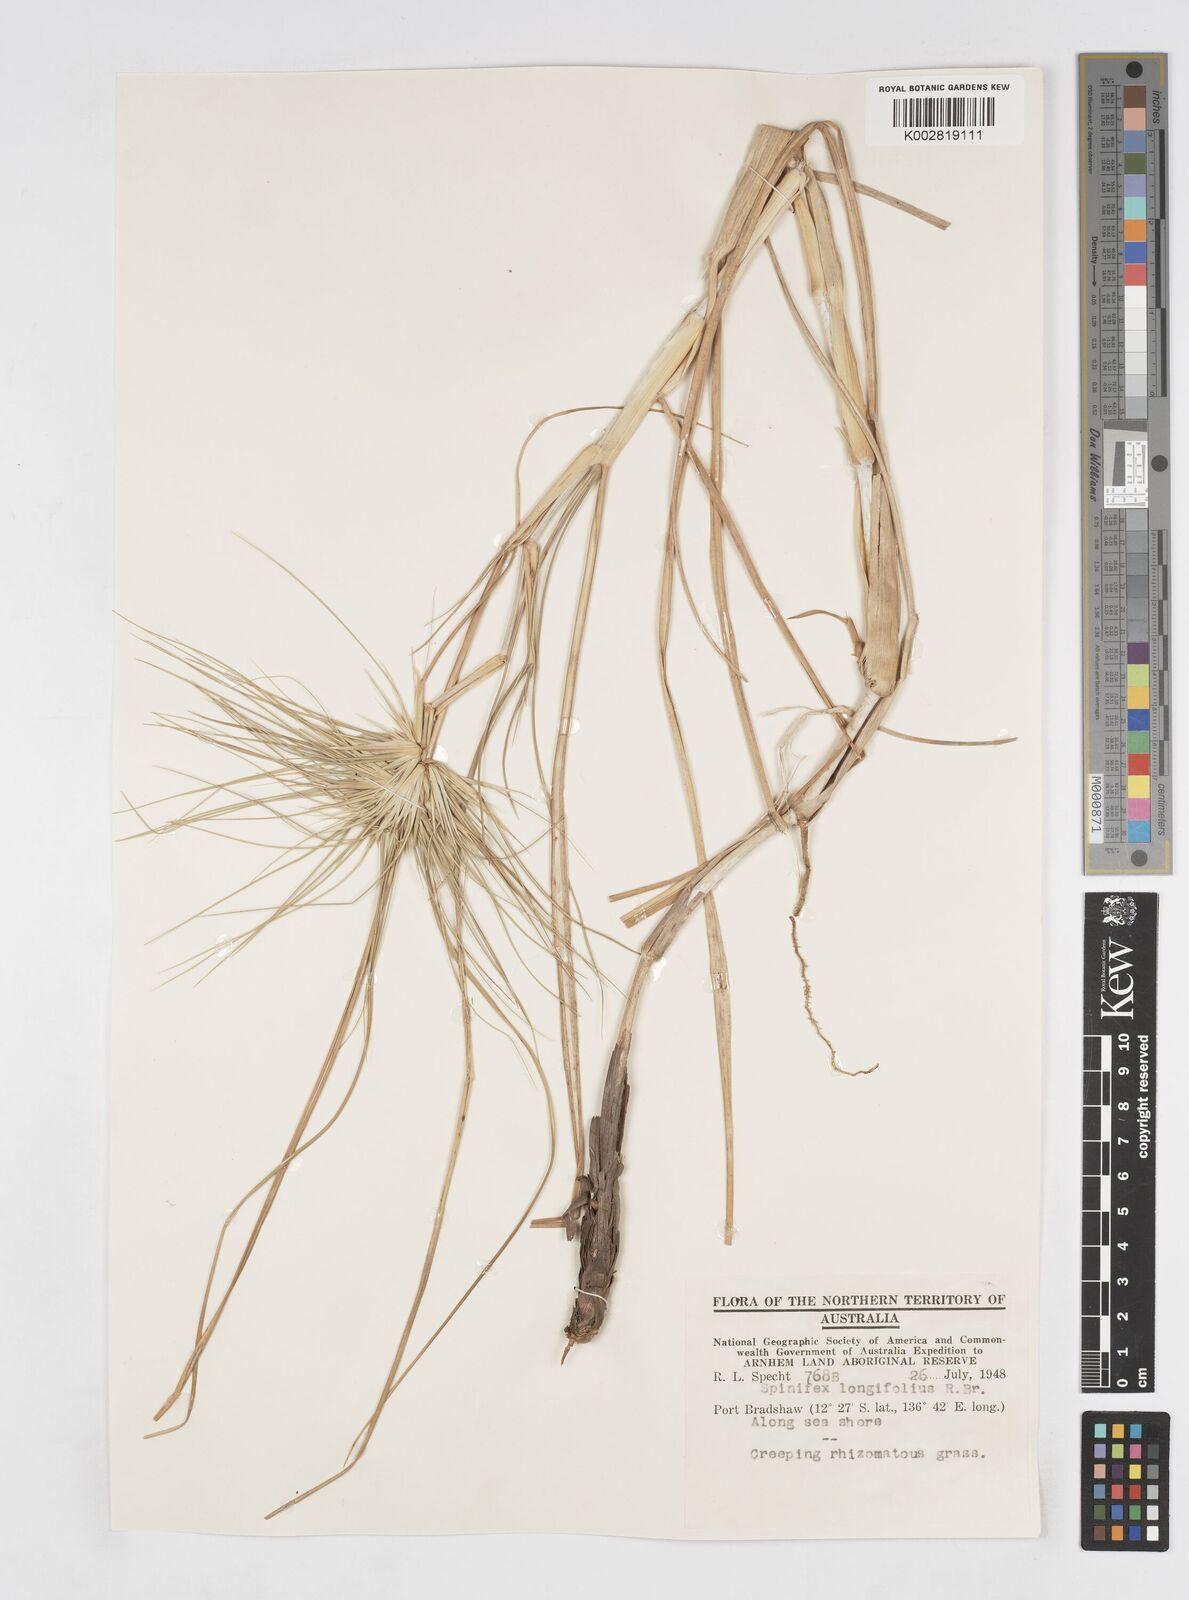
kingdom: Plantae
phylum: Tracheophyta
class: Liliopsida
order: Poales
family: Poaceae
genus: Spinifex
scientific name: Spinifex longifolius
